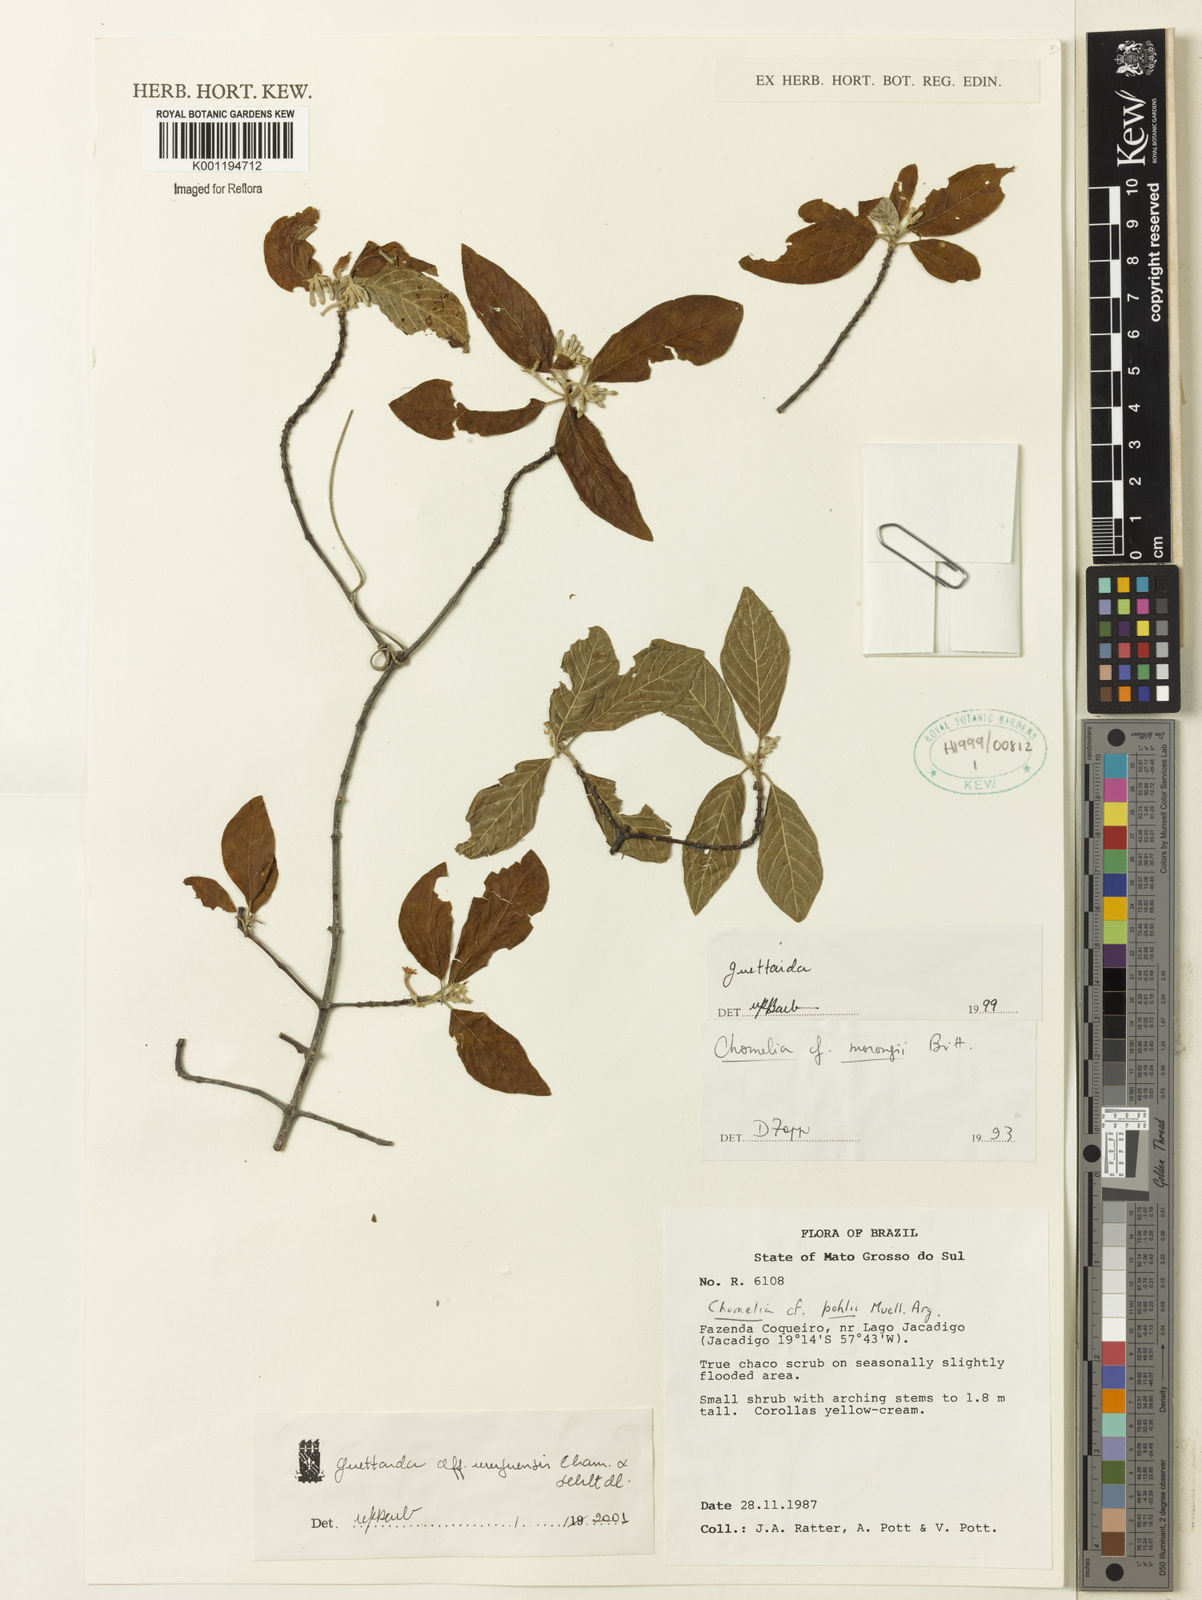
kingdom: Plantae
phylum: Tracheophyta
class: Magnoliopsida
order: Gentianales
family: Rubiaceae
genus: Guettarda
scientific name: Guettarda uruguensis
